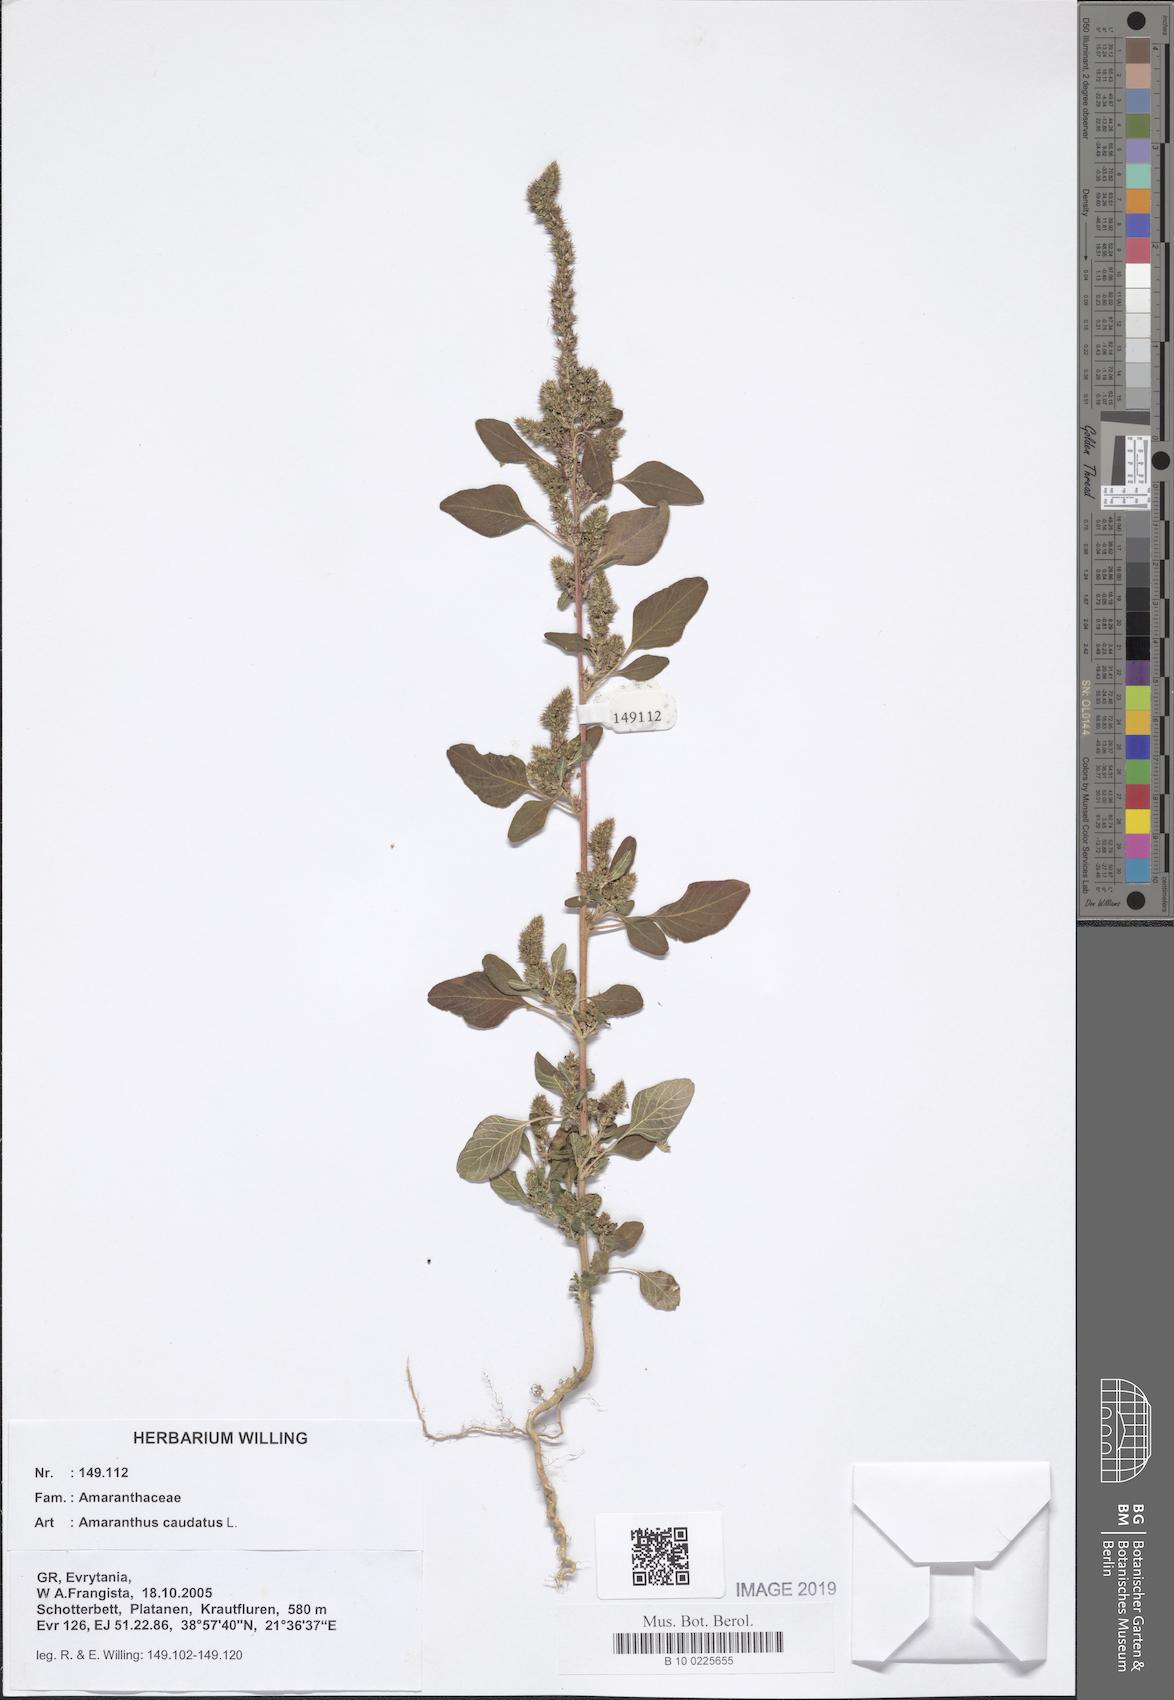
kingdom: Plantae
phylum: Tracheophyta
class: Magnoliopsida
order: Caryophyllales
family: Amaranthaceae
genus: Amaranthus
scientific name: Amaranthus caudatus
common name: Love-lies-bleeding
